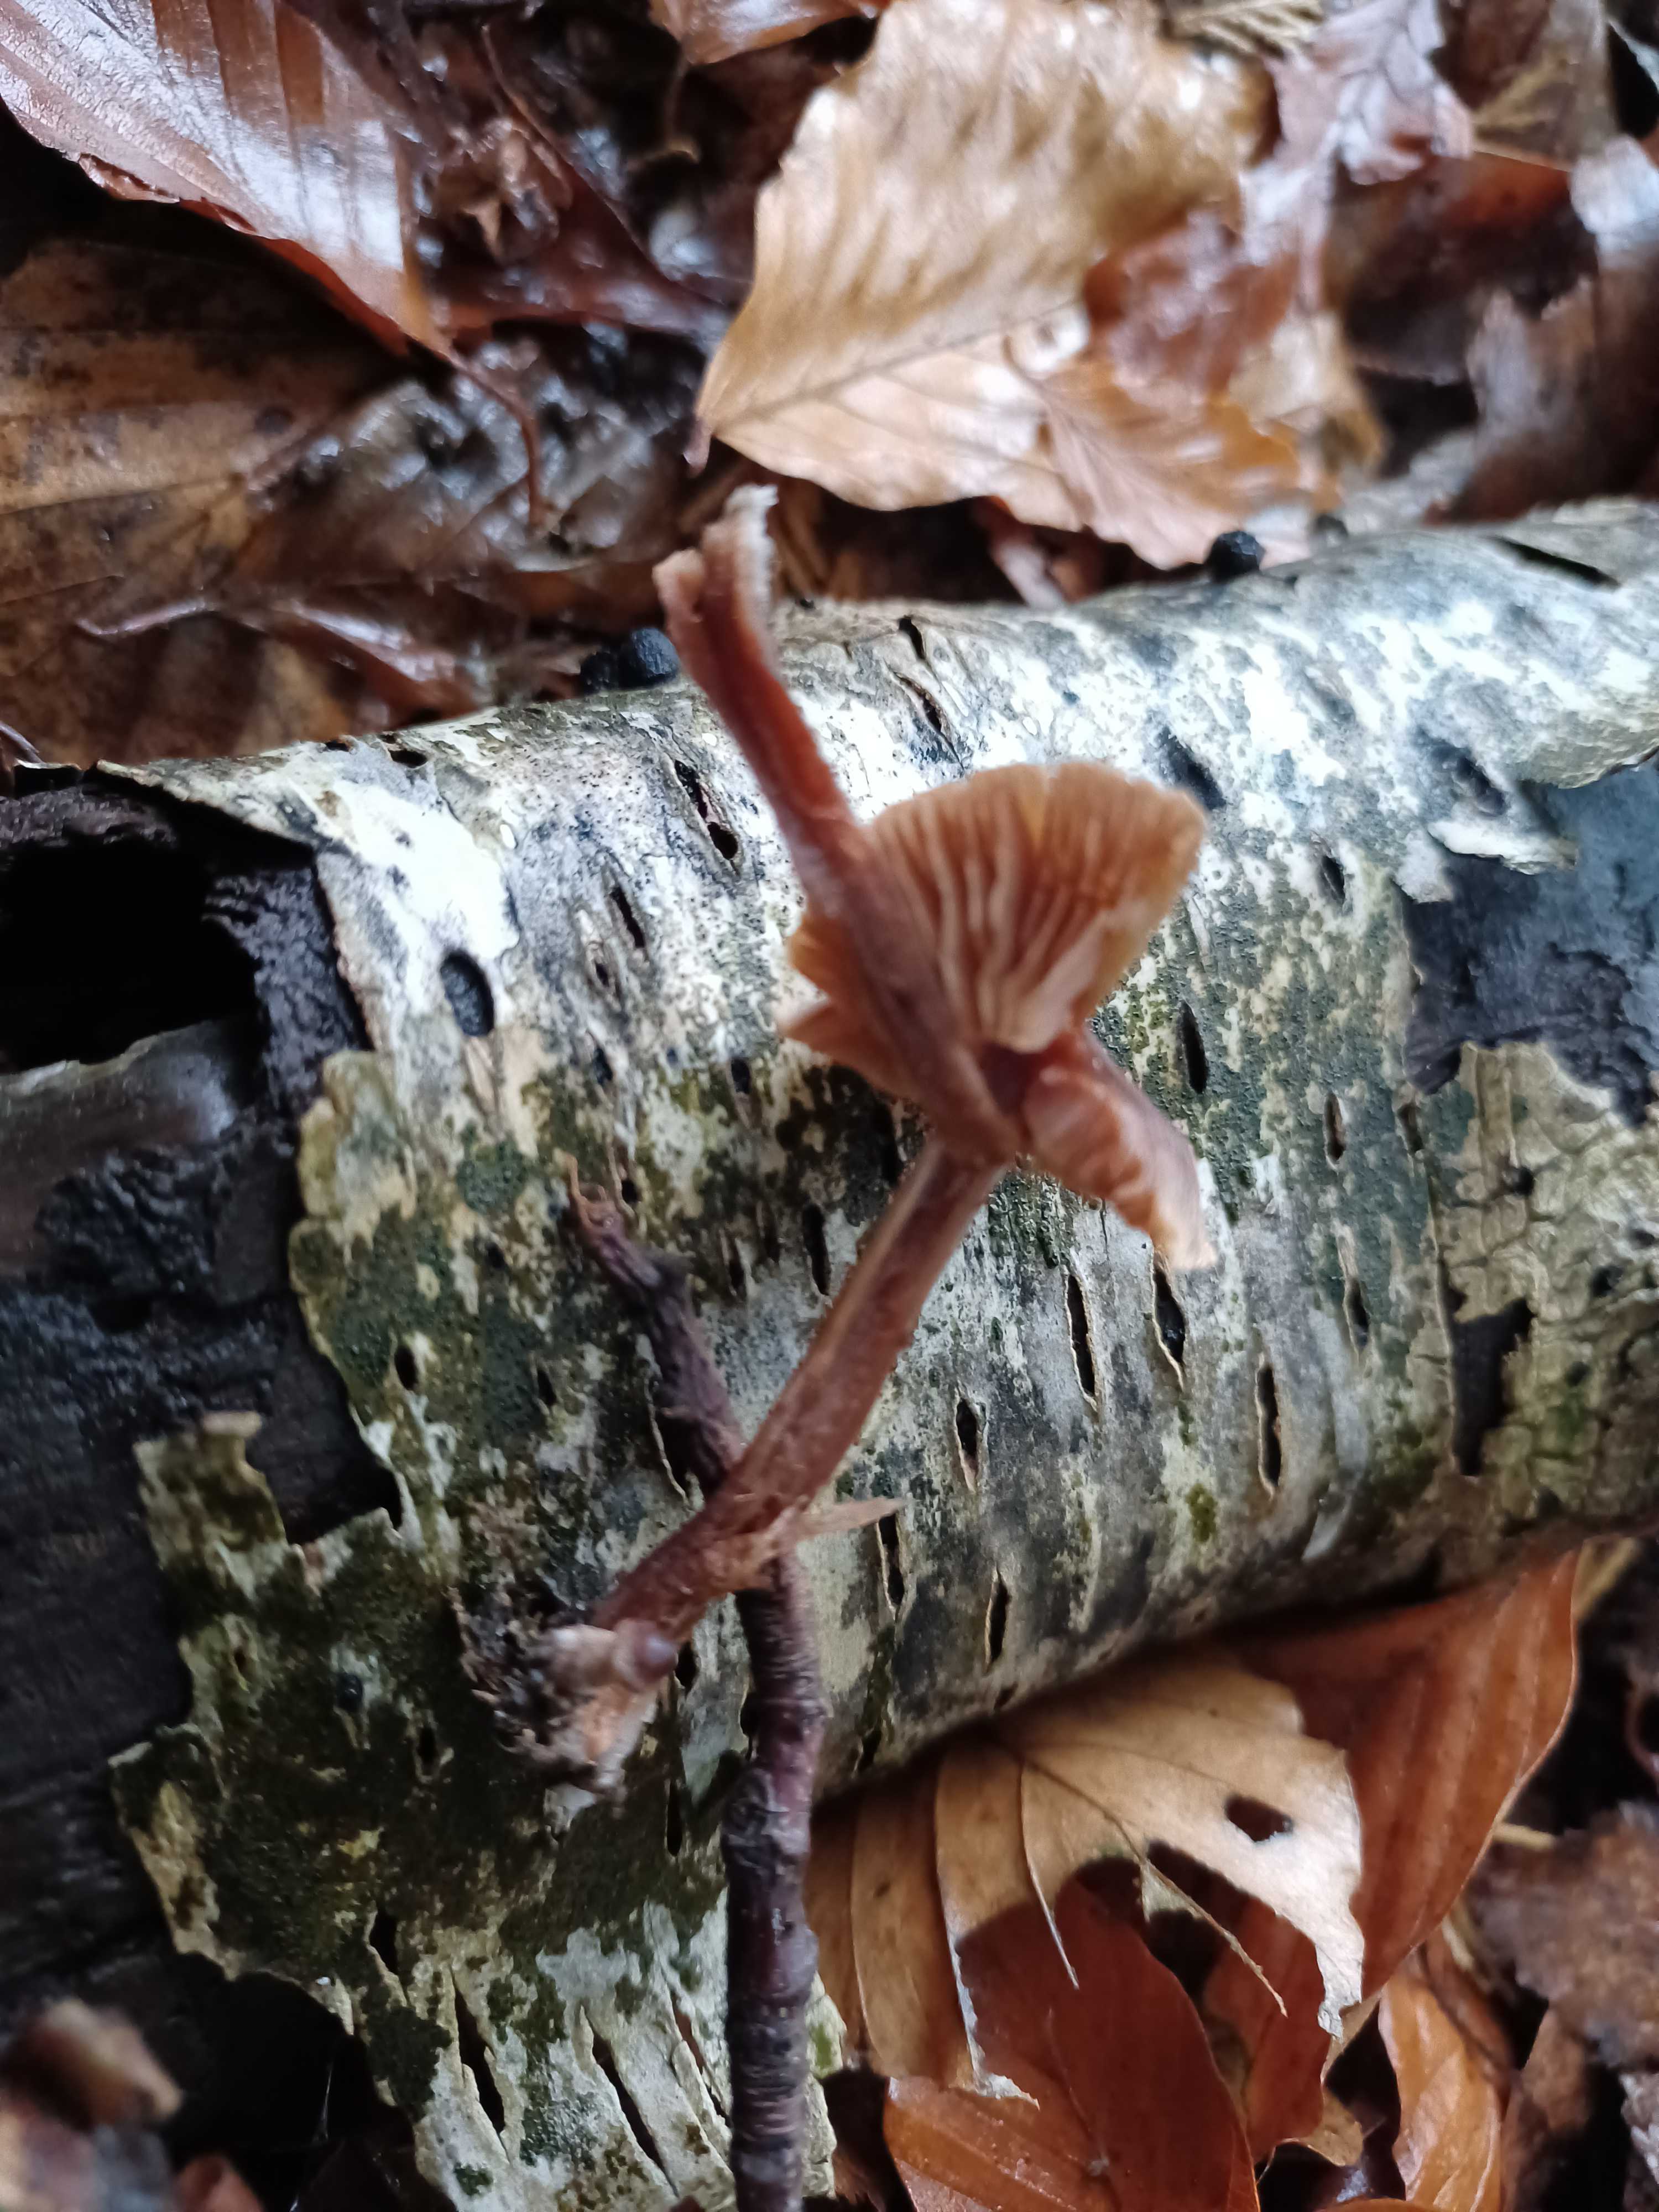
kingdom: Fungi
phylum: Basidiomycota
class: Agaricomycetes
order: Agaricales
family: Cortinariaceae
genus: Cortinarius
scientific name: Cortinarius
